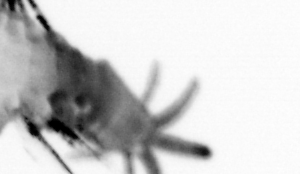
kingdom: Animalia
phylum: Annelida
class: Polychaeta
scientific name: Polychaeta
